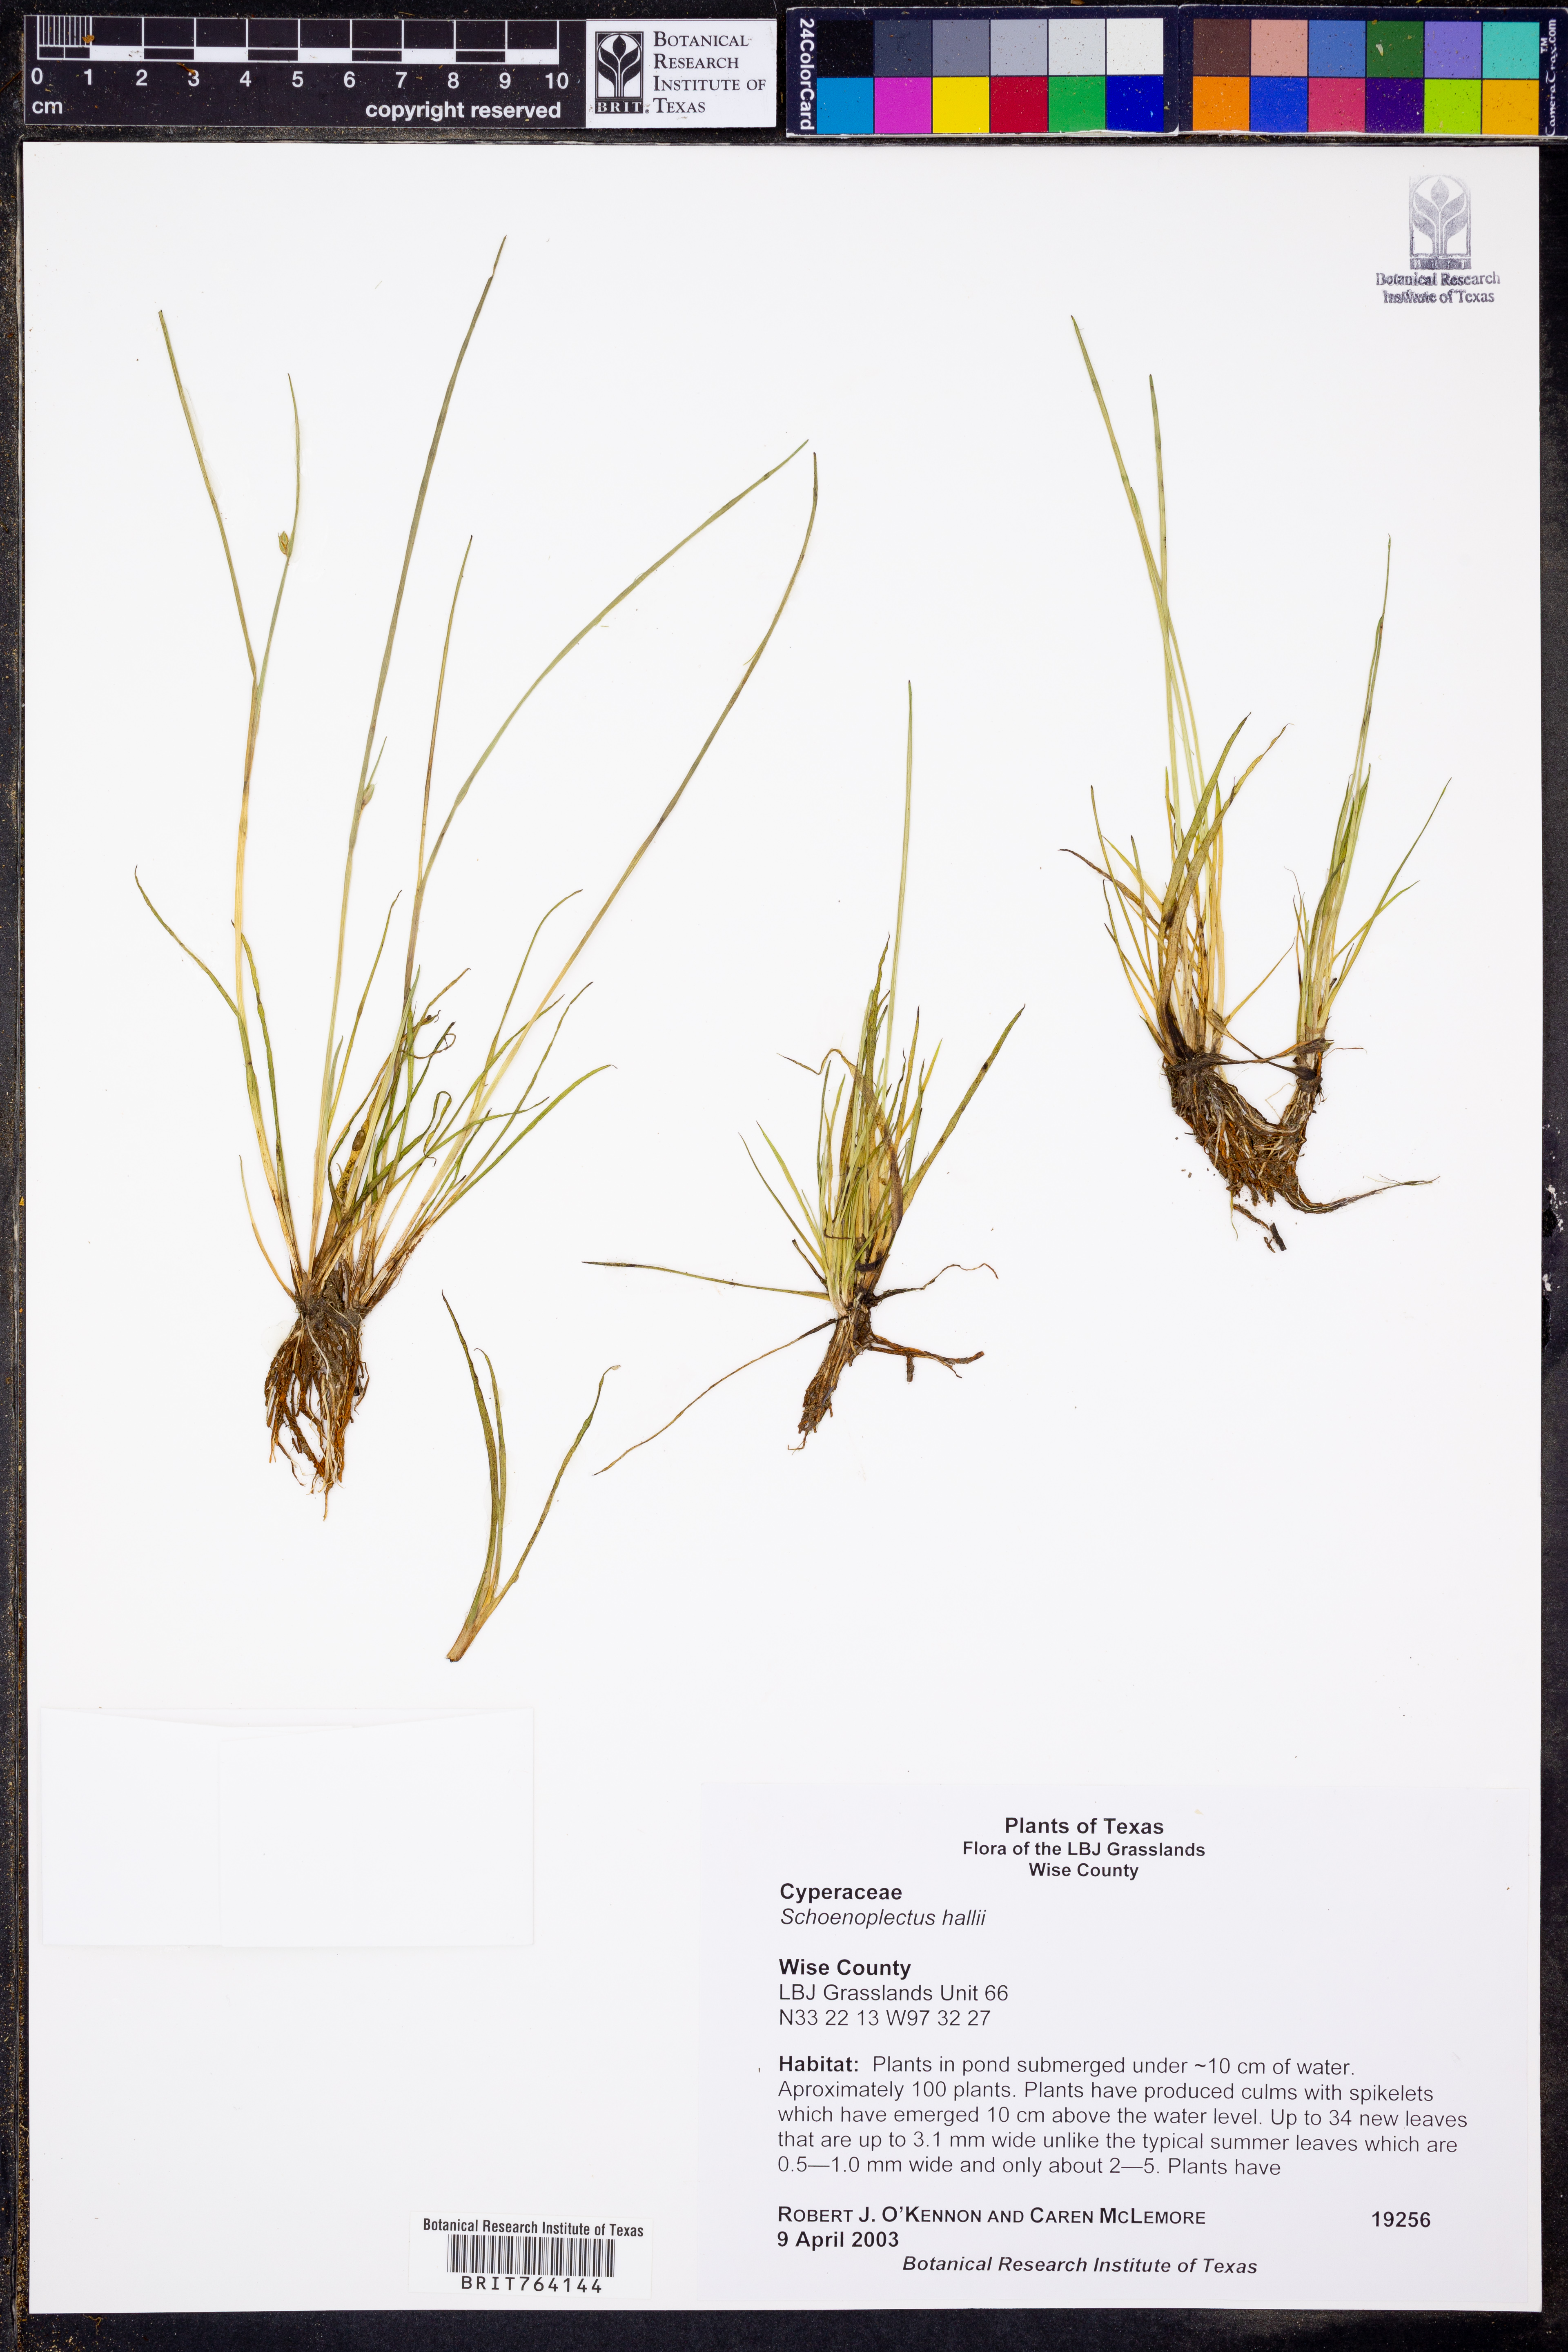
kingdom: Plantae
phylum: Tracheophyta
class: Liliopsida
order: Poales
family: Cyperaceae
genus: Schoenoplectiella
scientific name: Schoenoplectiella hallii
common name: Hall's bullrush
